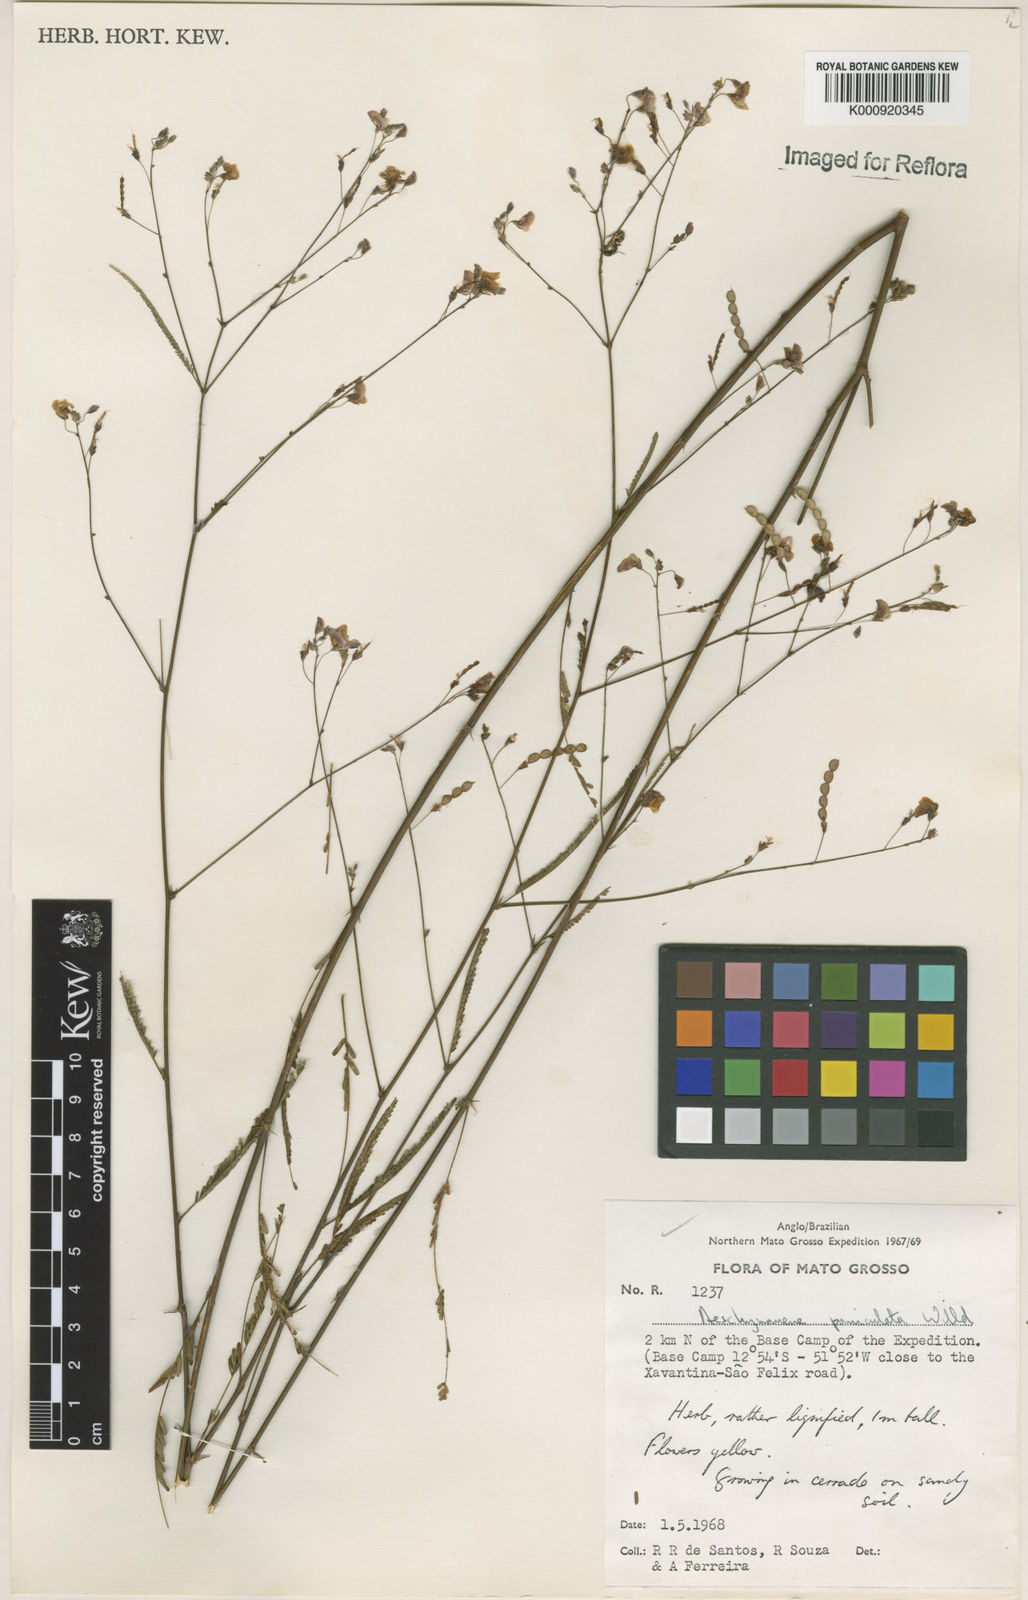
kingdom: Plantae
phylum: Tracheophyta
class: Magnoliopsida
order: Fabales
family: Fabaceae
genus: Ctenodon
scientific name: Ctenodon paniculatus
